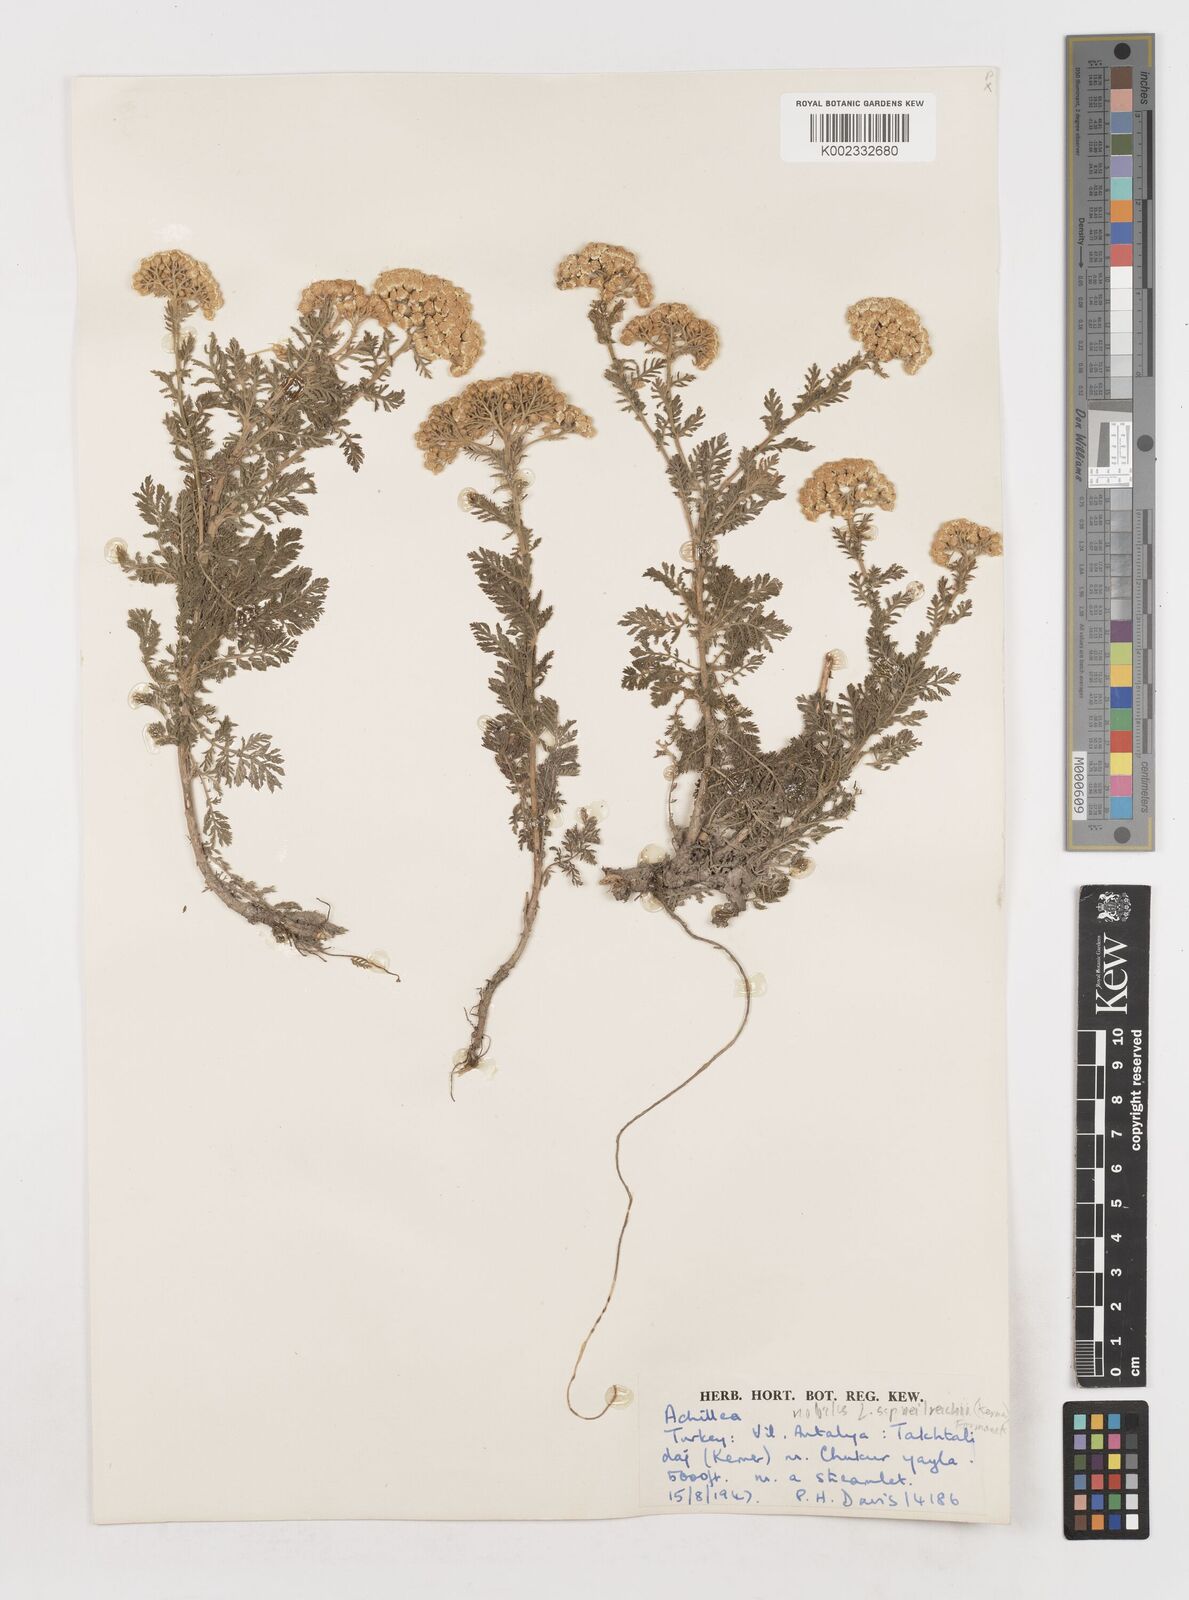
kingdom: Plantae
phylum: Tracheophyta
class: Magnoliopsida
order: Asterales
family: Asteraceae
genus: Achillea
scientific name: Achillea nobilis
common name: Noble yarrow
